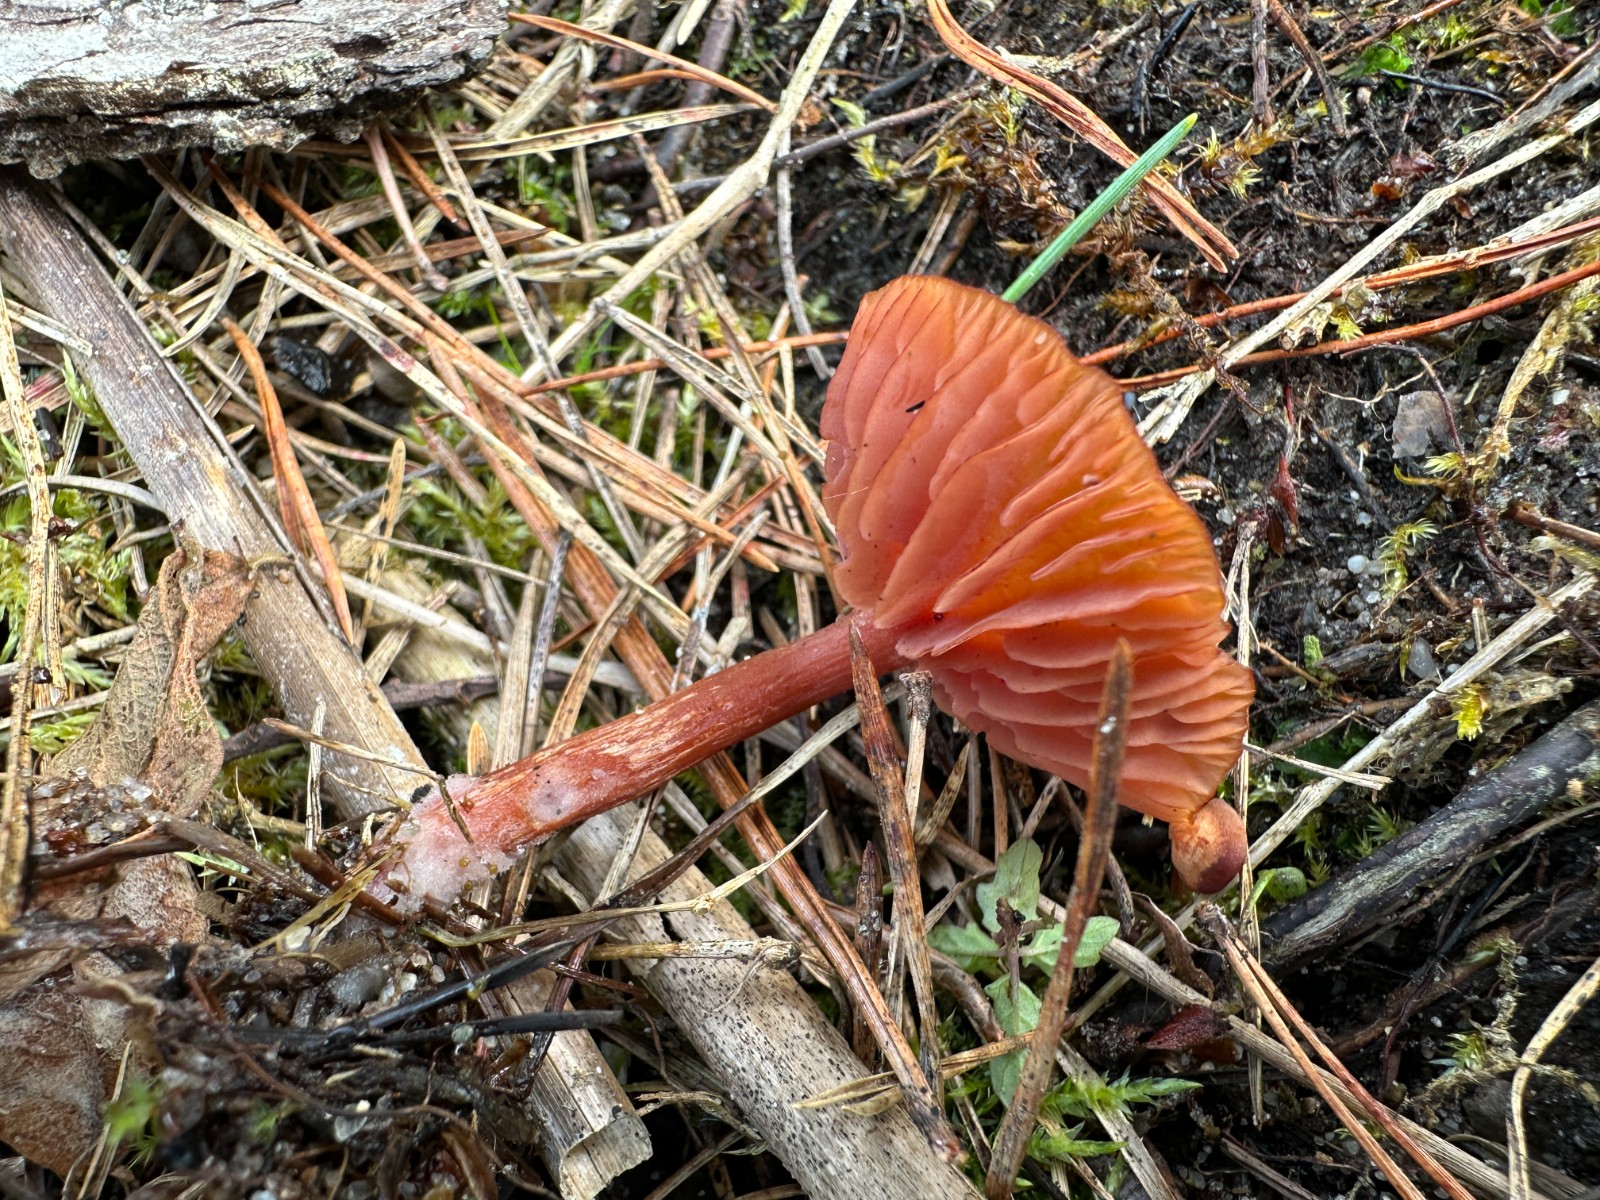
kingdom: Fungi
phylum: Basidiomycota
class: Agaricomycetes
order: Agaricales
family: Hydnangiaceae
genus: Laccaria
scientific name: Laccaria
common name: ametysthat
